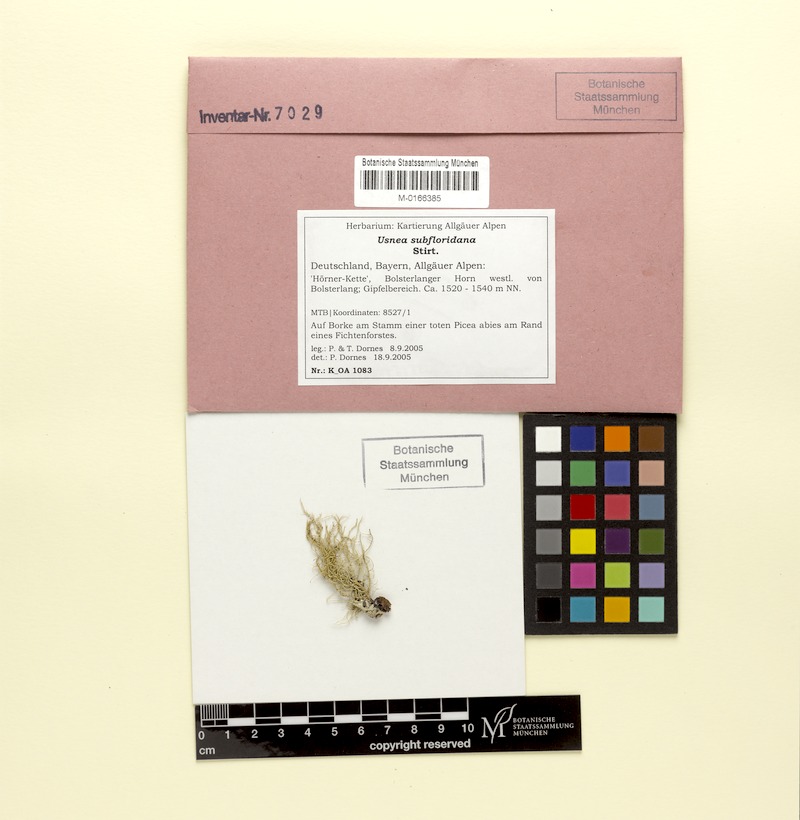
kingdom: Fungi
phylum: Ascomycota
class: Lecanoromycetes
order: Lecanorales
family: Parmeliaceae
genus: Usnea
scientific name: Usnea subfloridana
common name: Boreal beard lichen
